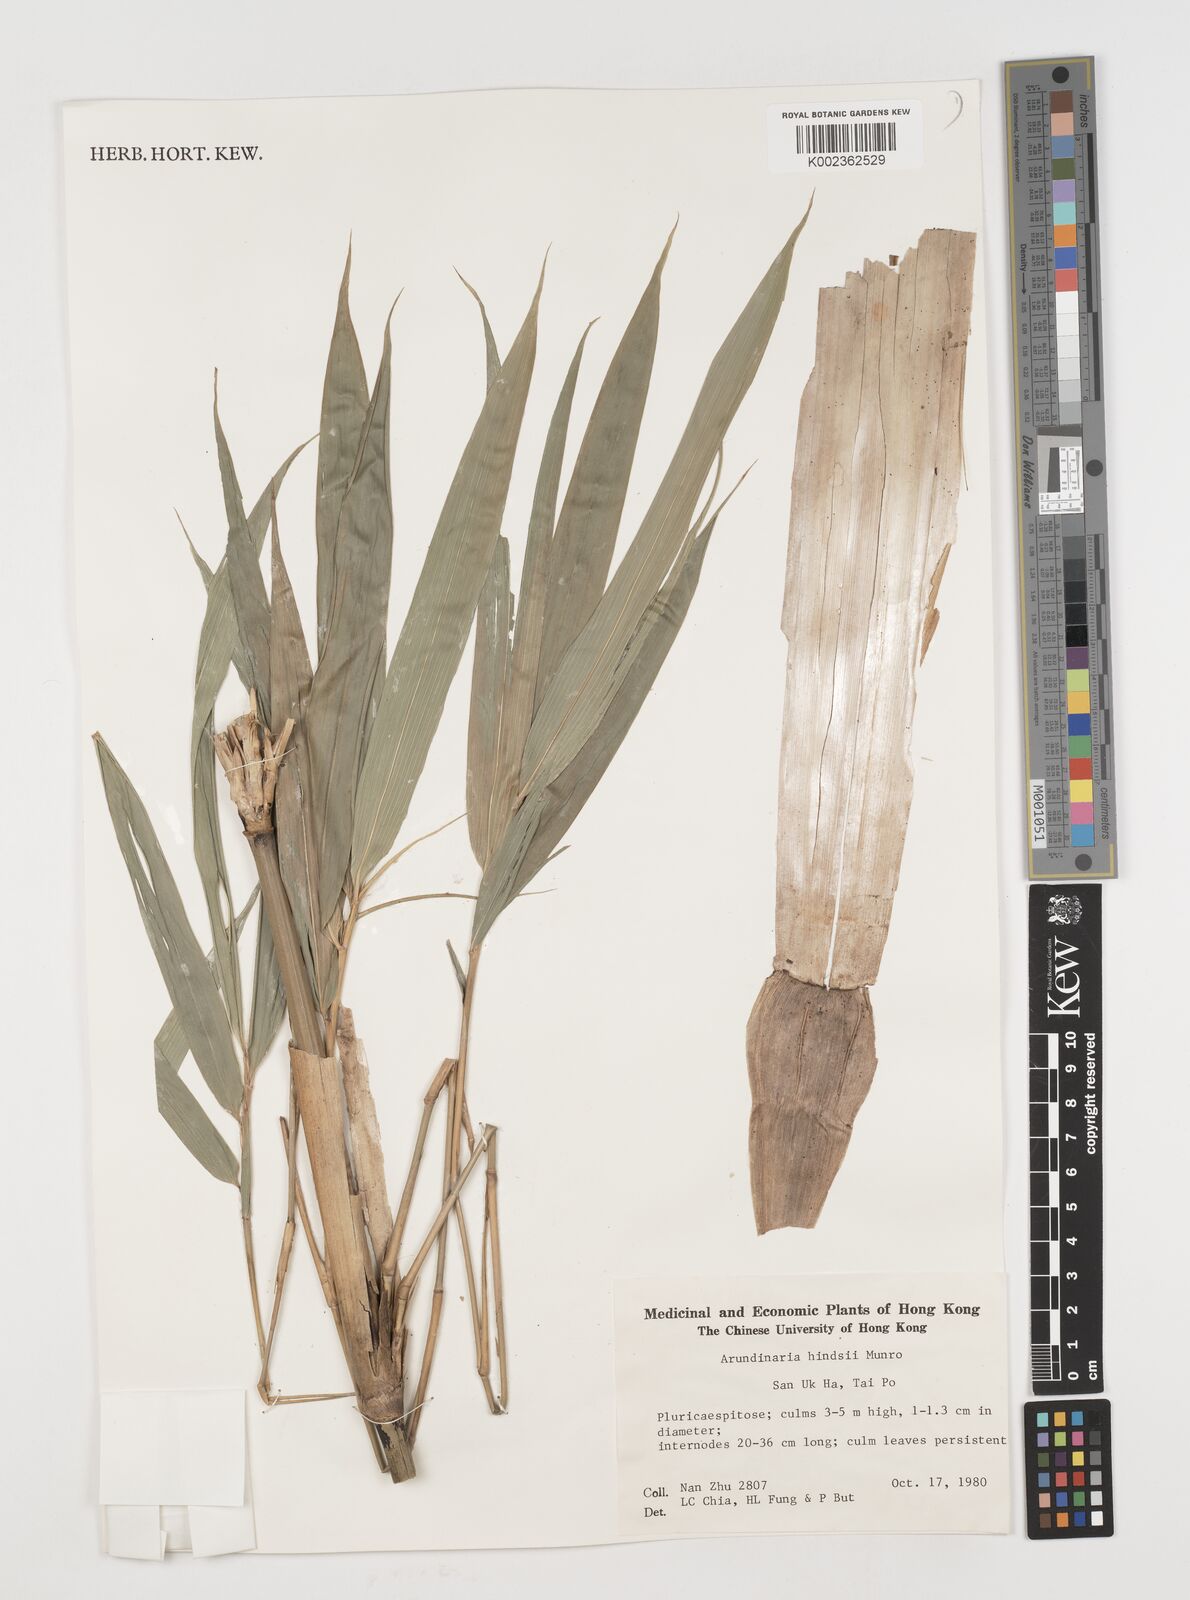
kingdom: Plantae
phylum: Tracheophyta
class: Liliopsida
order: Poales
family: Poaceae
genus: Pseudosasa
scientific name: Pseudosasa hindsii
